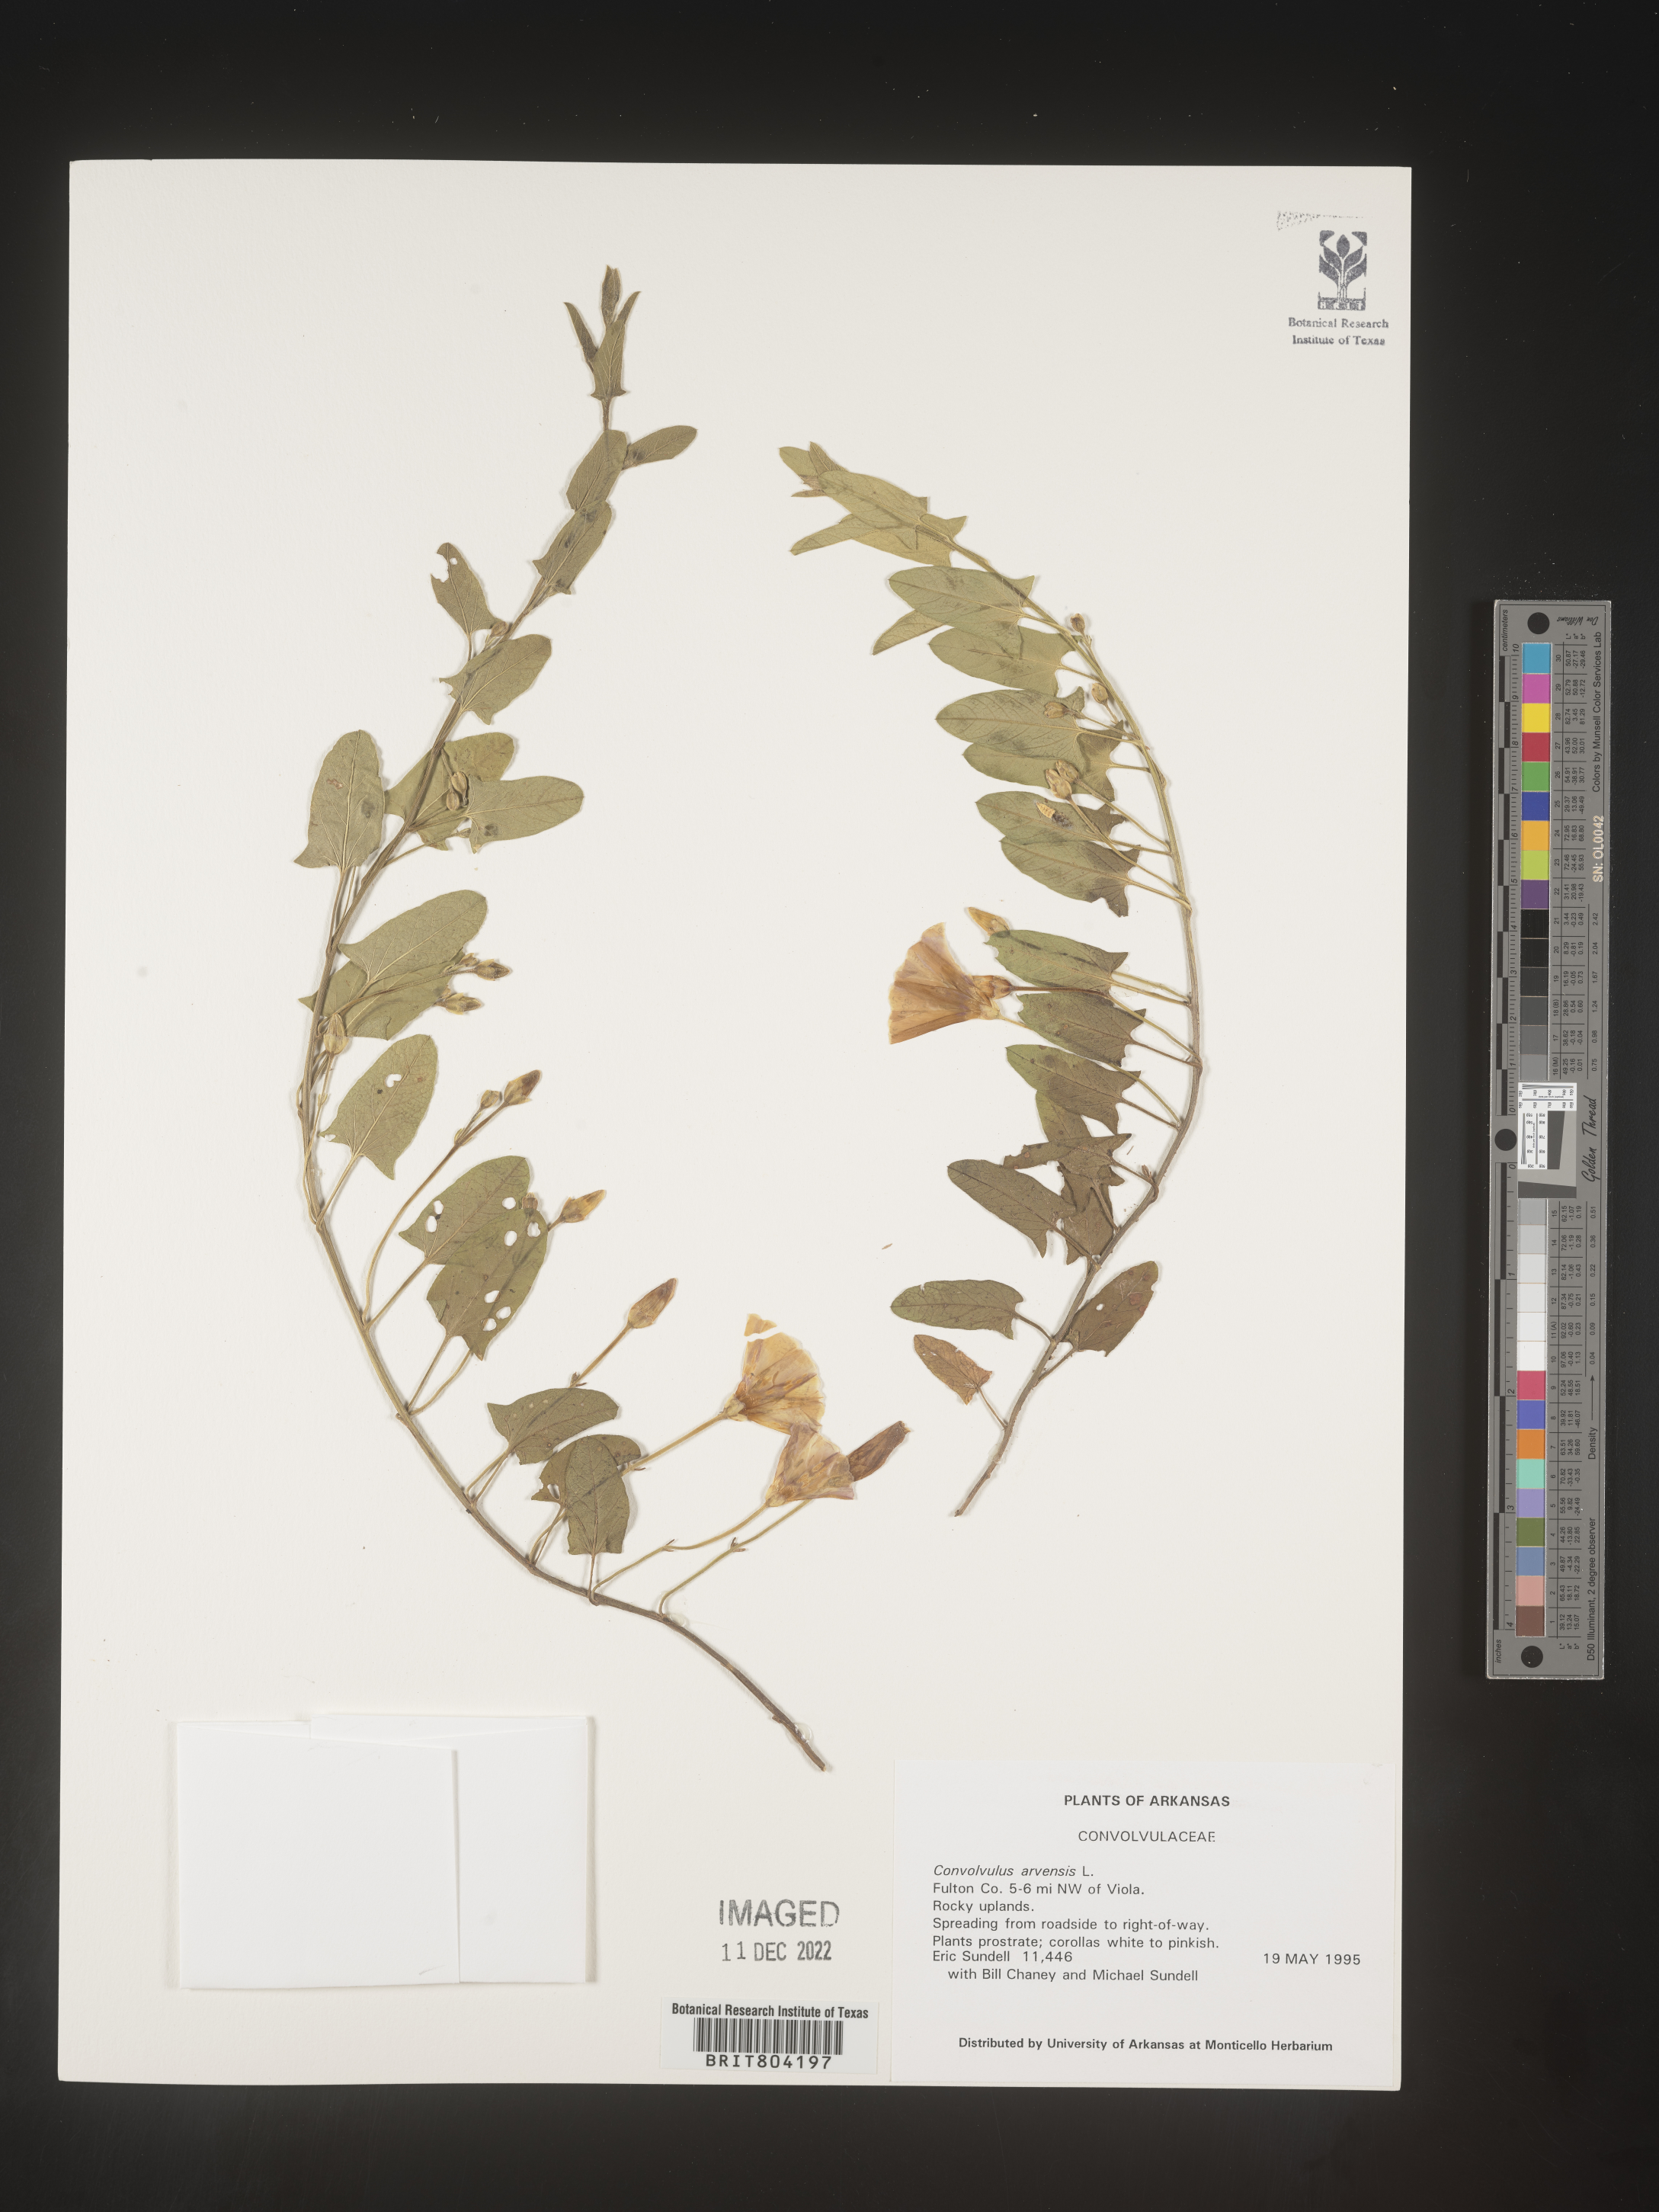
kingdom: Plantae
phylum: Tracheophyta
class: Magnoliopsida
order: Solanales
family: Convolvulaceae
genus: Convolvulus
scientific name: Convolvulus arvensis
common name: Field bindweed
